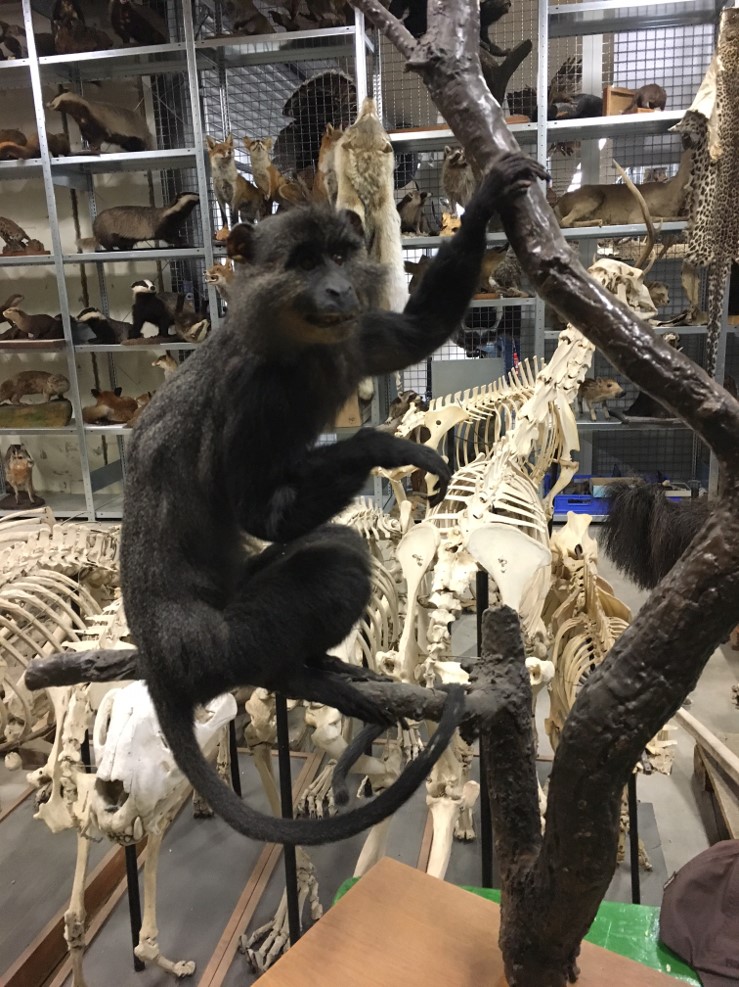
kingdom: Animalia
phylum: Chordata
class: Mammalia
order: Primates
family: Cercopithecidae
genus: Cercopithecus
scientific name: Cercopithecus mitis
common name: Blue monkey
